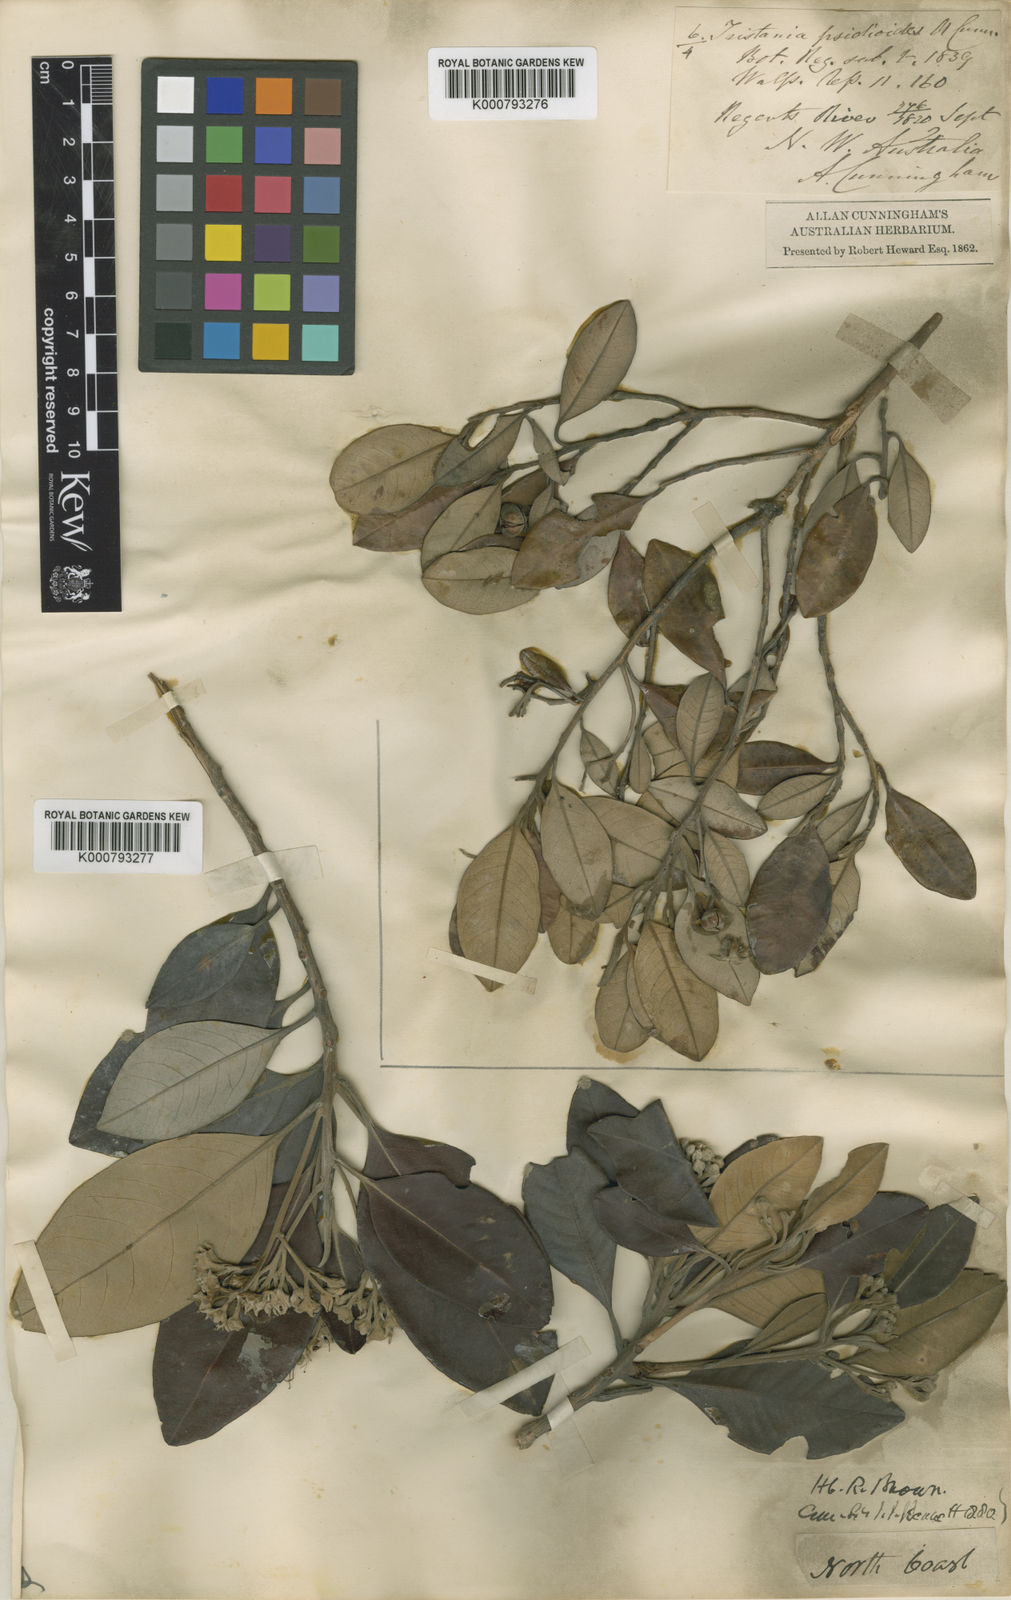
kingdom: Plantae
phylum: Tracheophyta
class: Magnoliopsida
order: Myrtales
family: Myrtaceae
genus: Xanthostemon
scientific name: Xanthostemon psidioides
